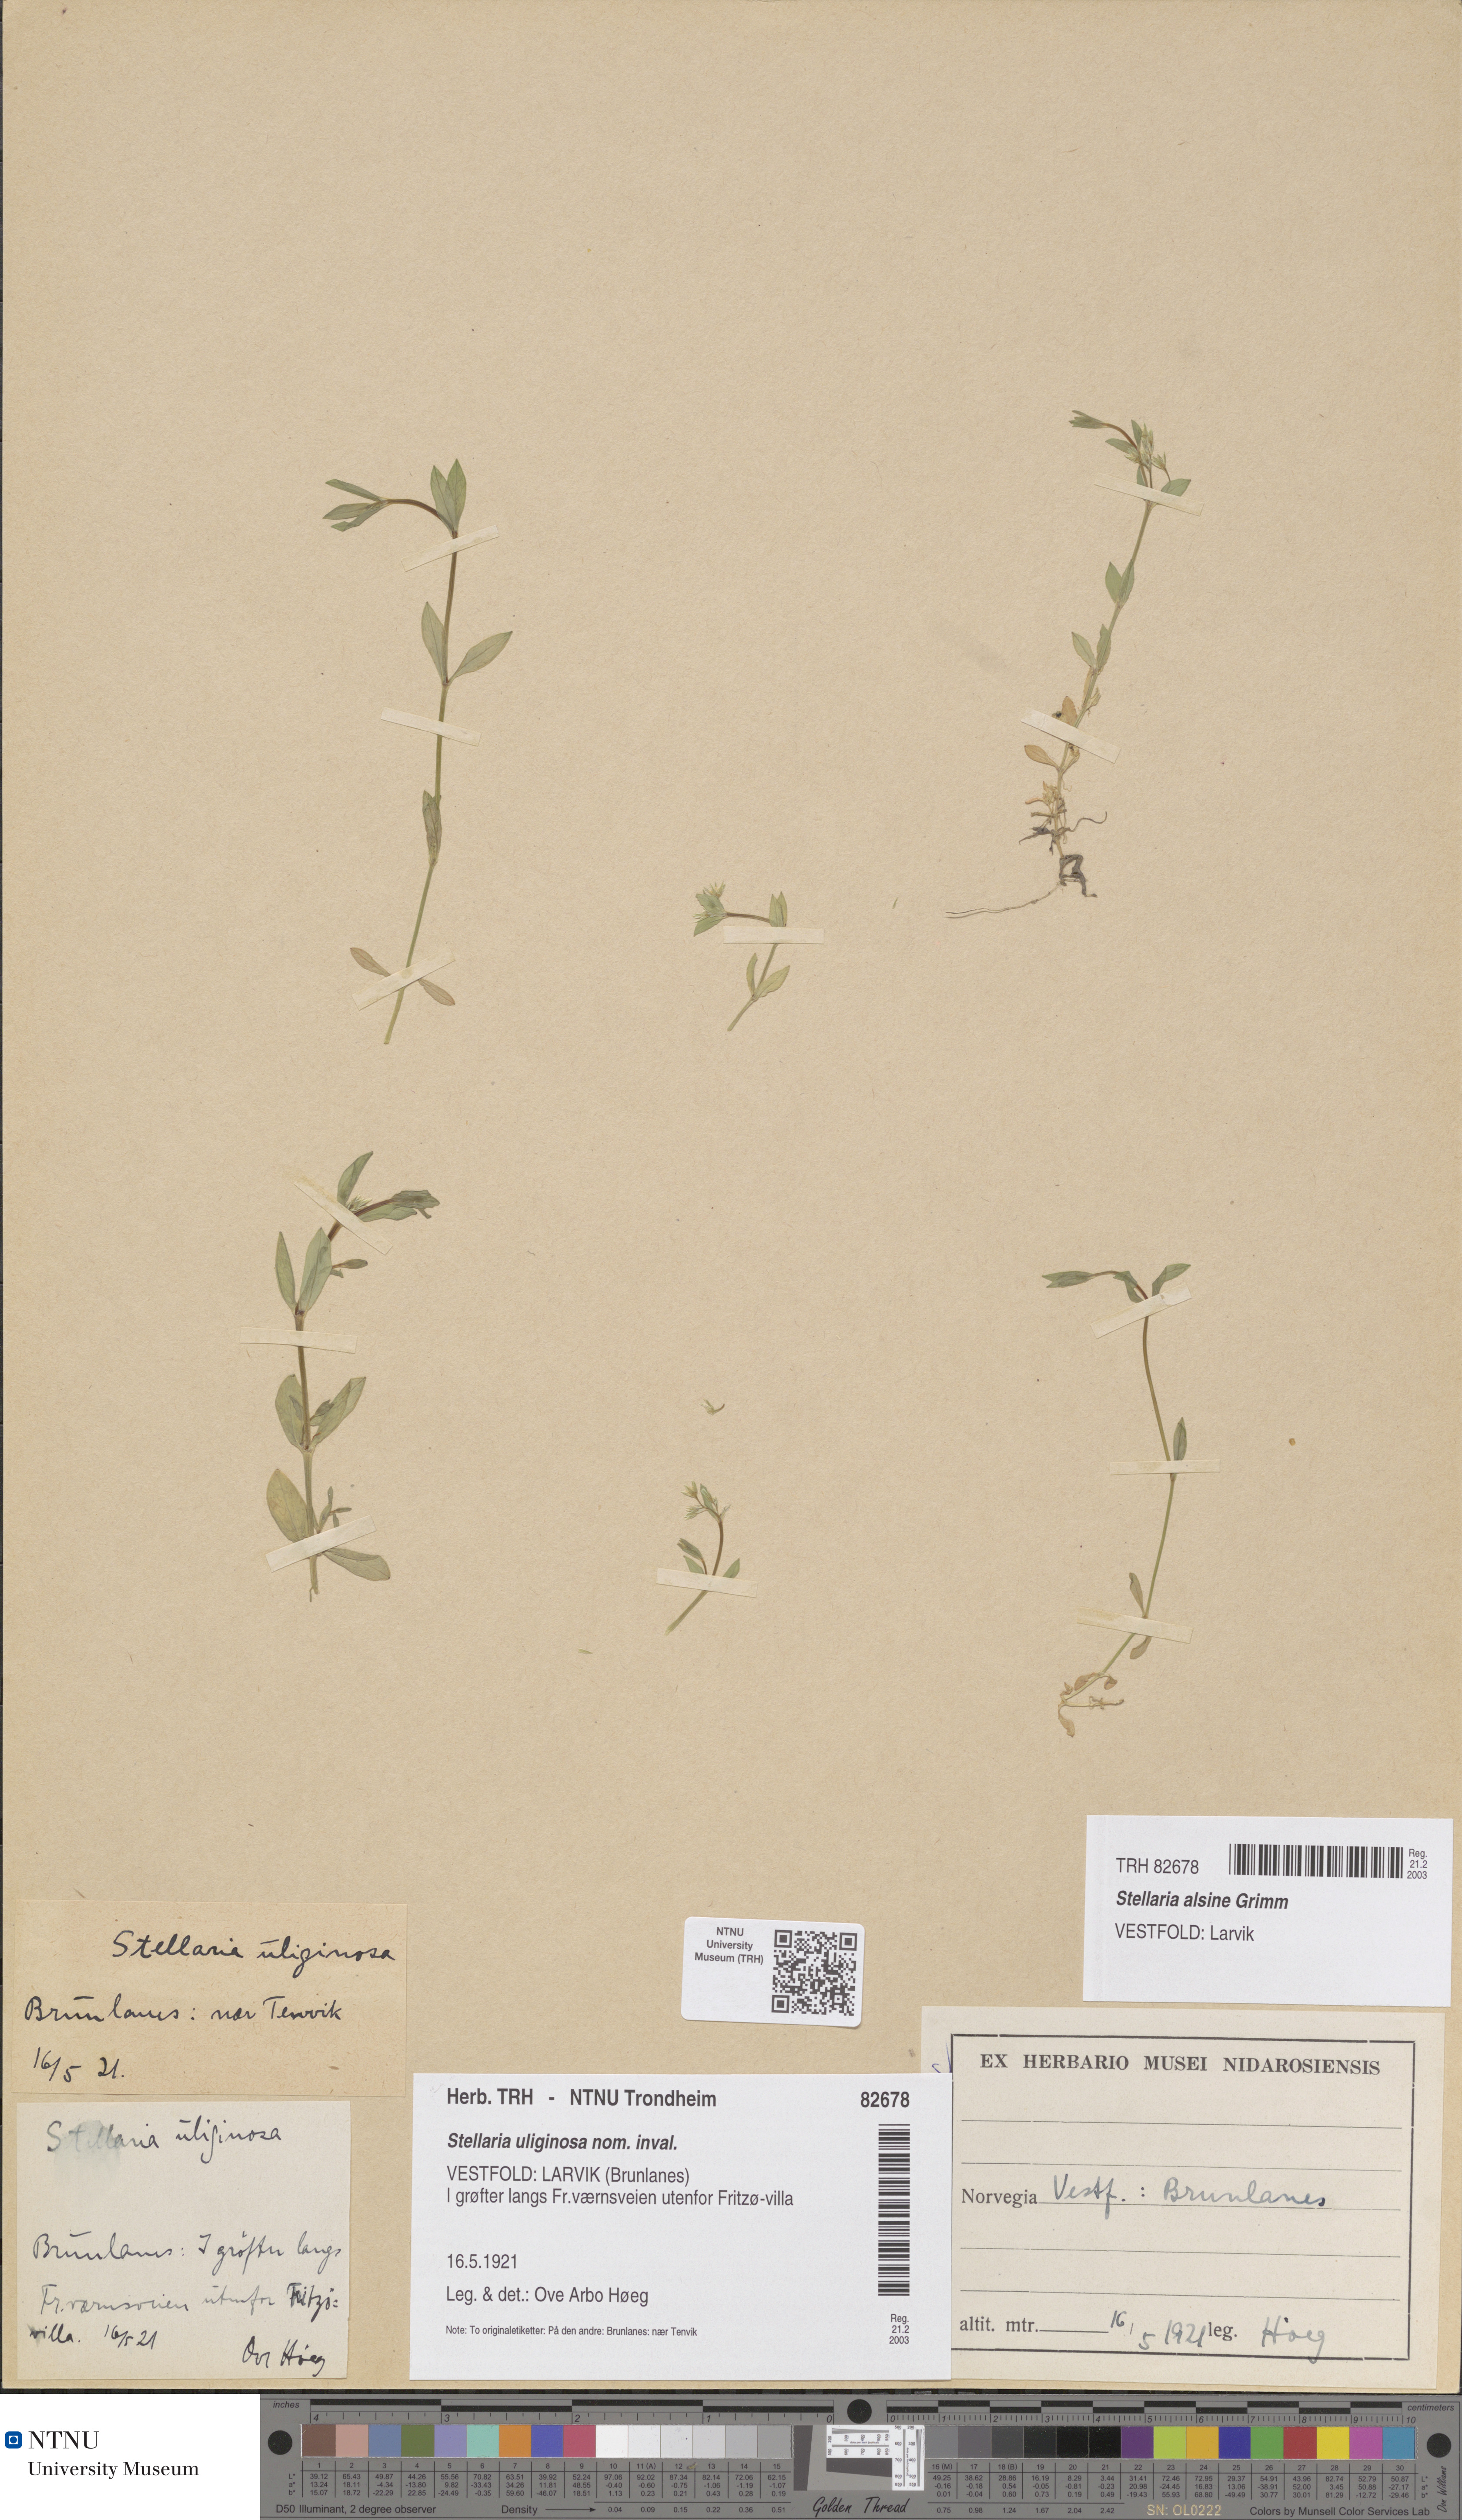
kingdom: Plantae
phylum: Tracheophyta
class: Magnoliopsida
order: Caryophyllales
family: Caryophyllaceae
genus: Stellaria
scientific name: Stellaria alsine
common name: Bog stitchwort
